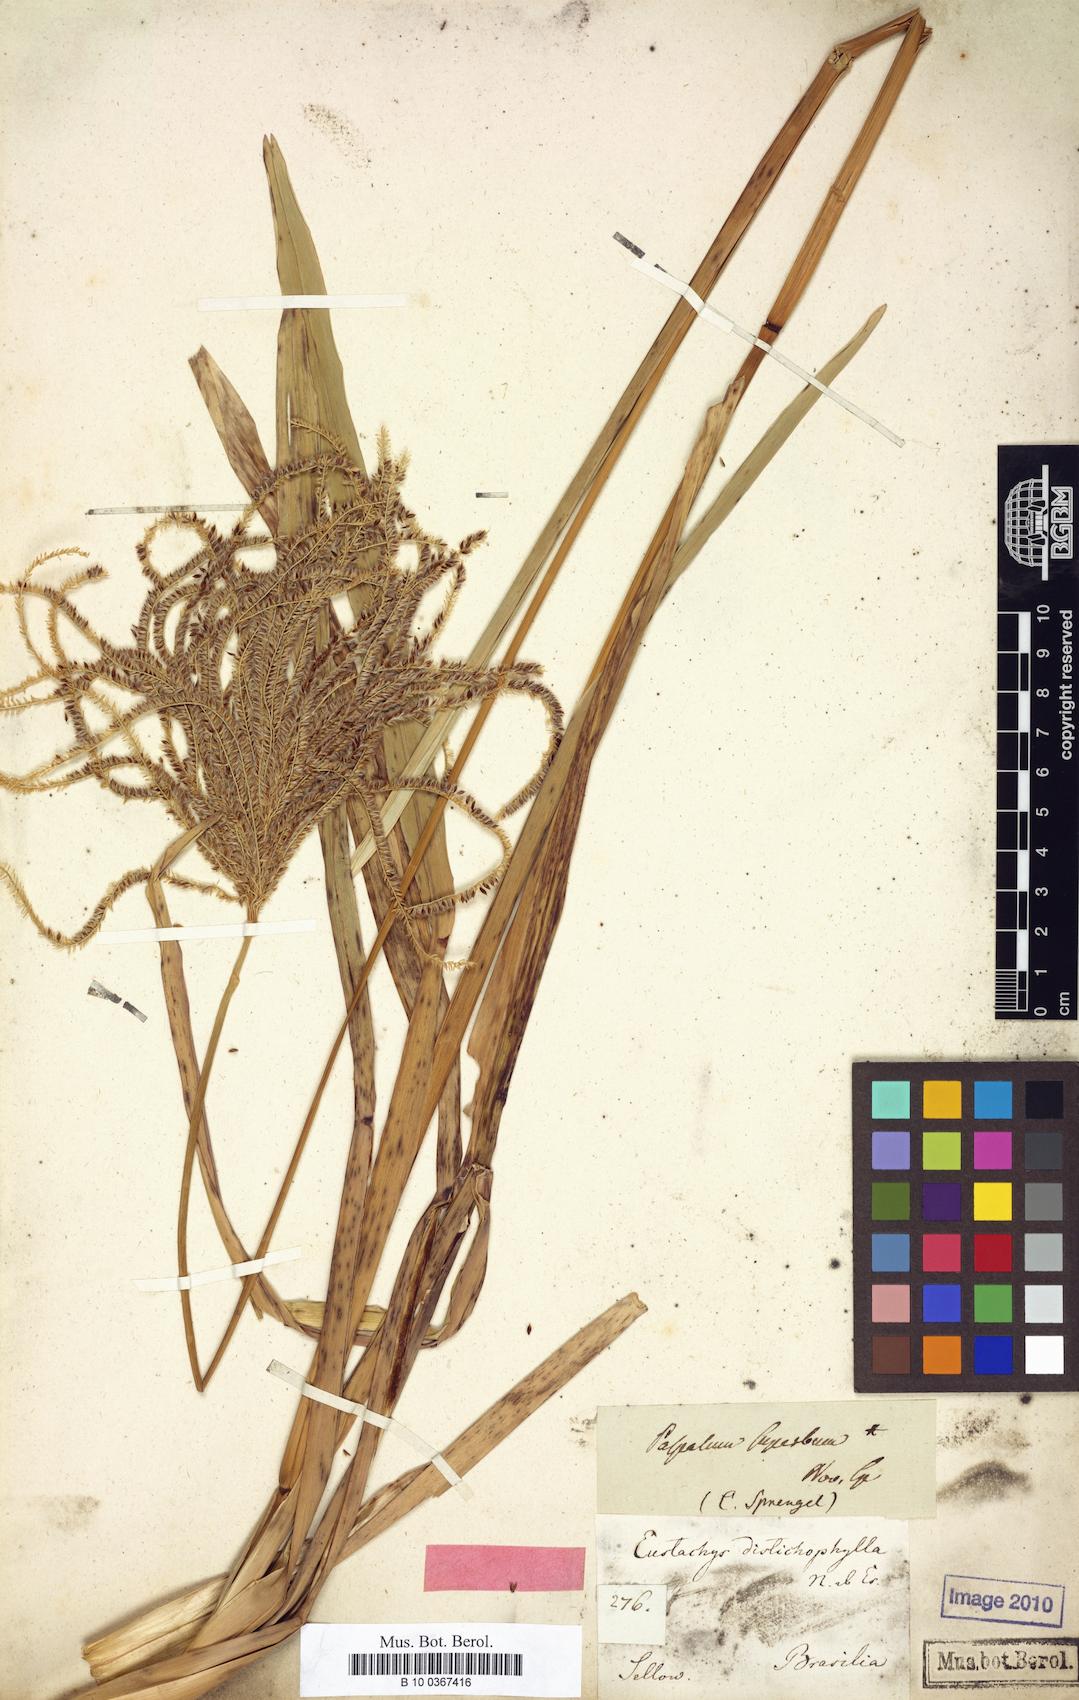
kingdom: Plantae
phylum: Tracheophyta
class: Liliopsida
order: Poales
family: Poaceae
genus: Eustachys
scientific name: Eustachys distichophylla
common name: Weeping fingergrass
